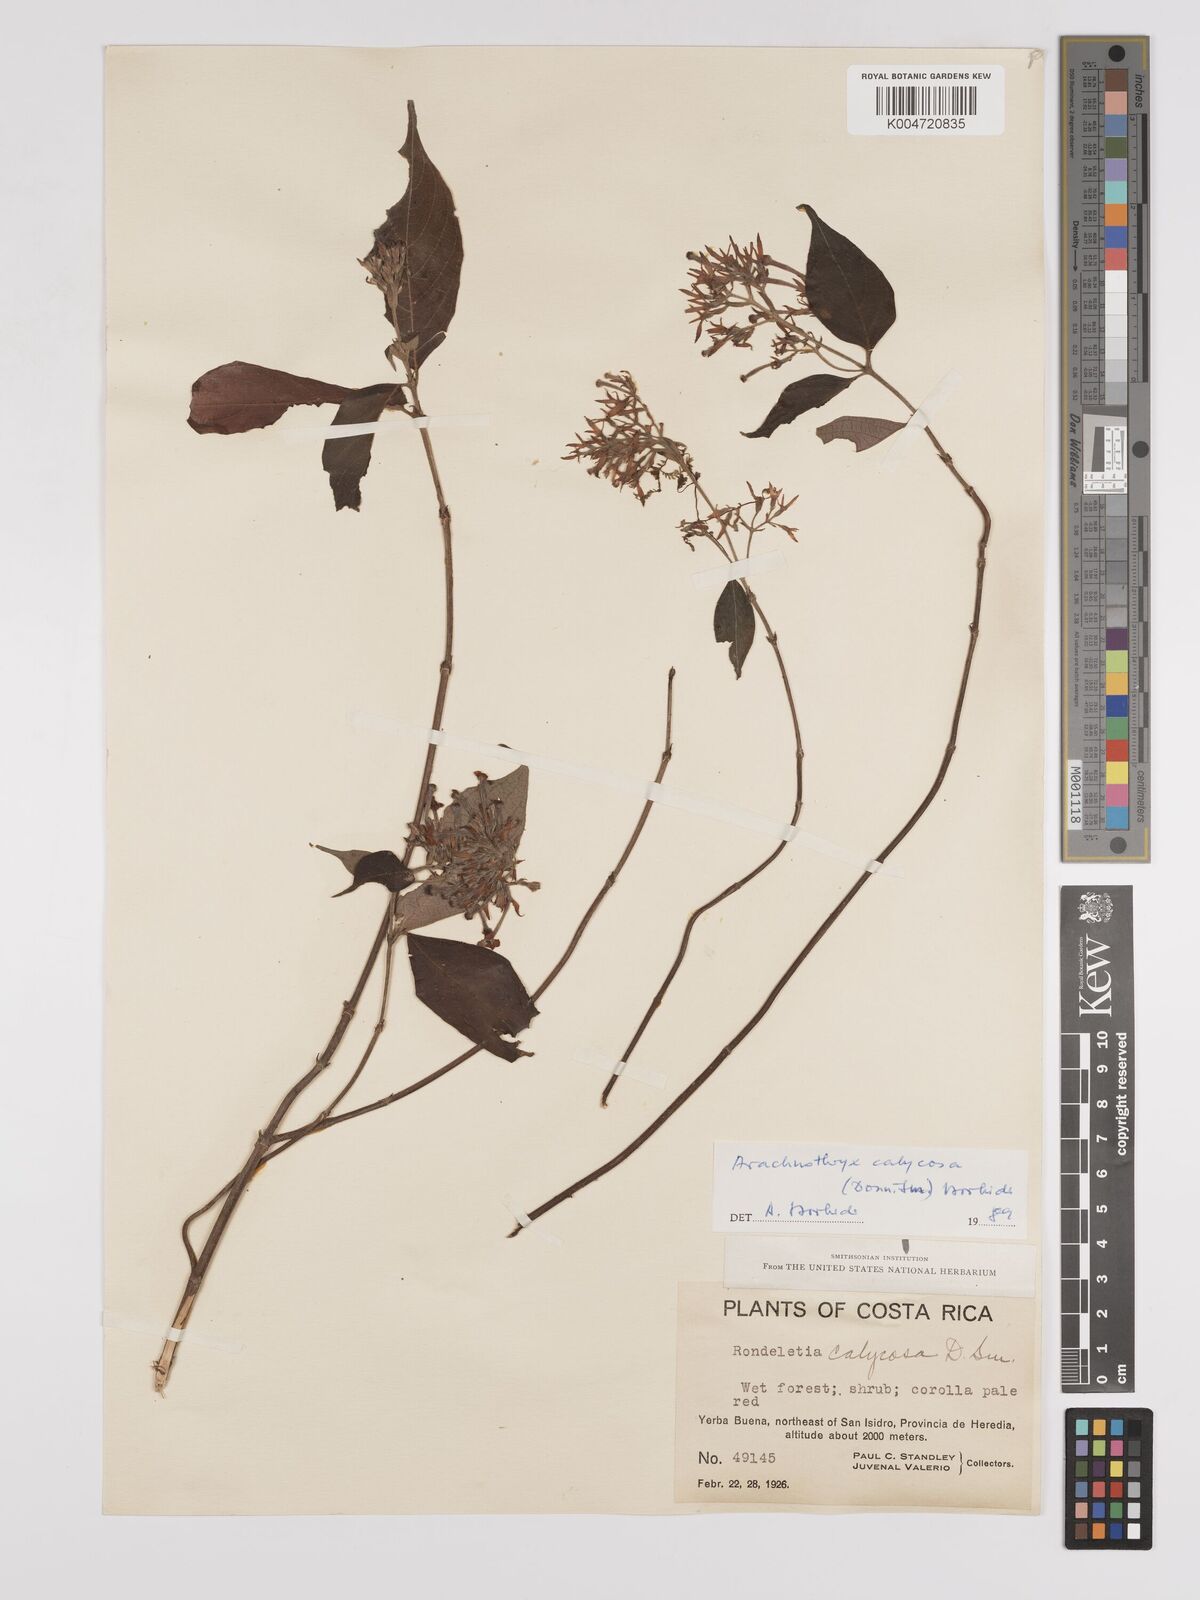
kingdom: Plantae
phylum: Tracheophyta
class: Magnoliopsida
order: Gentianales
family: Rubiaceae
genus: Arachnothryx
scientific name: Arachnothryx calycosa
